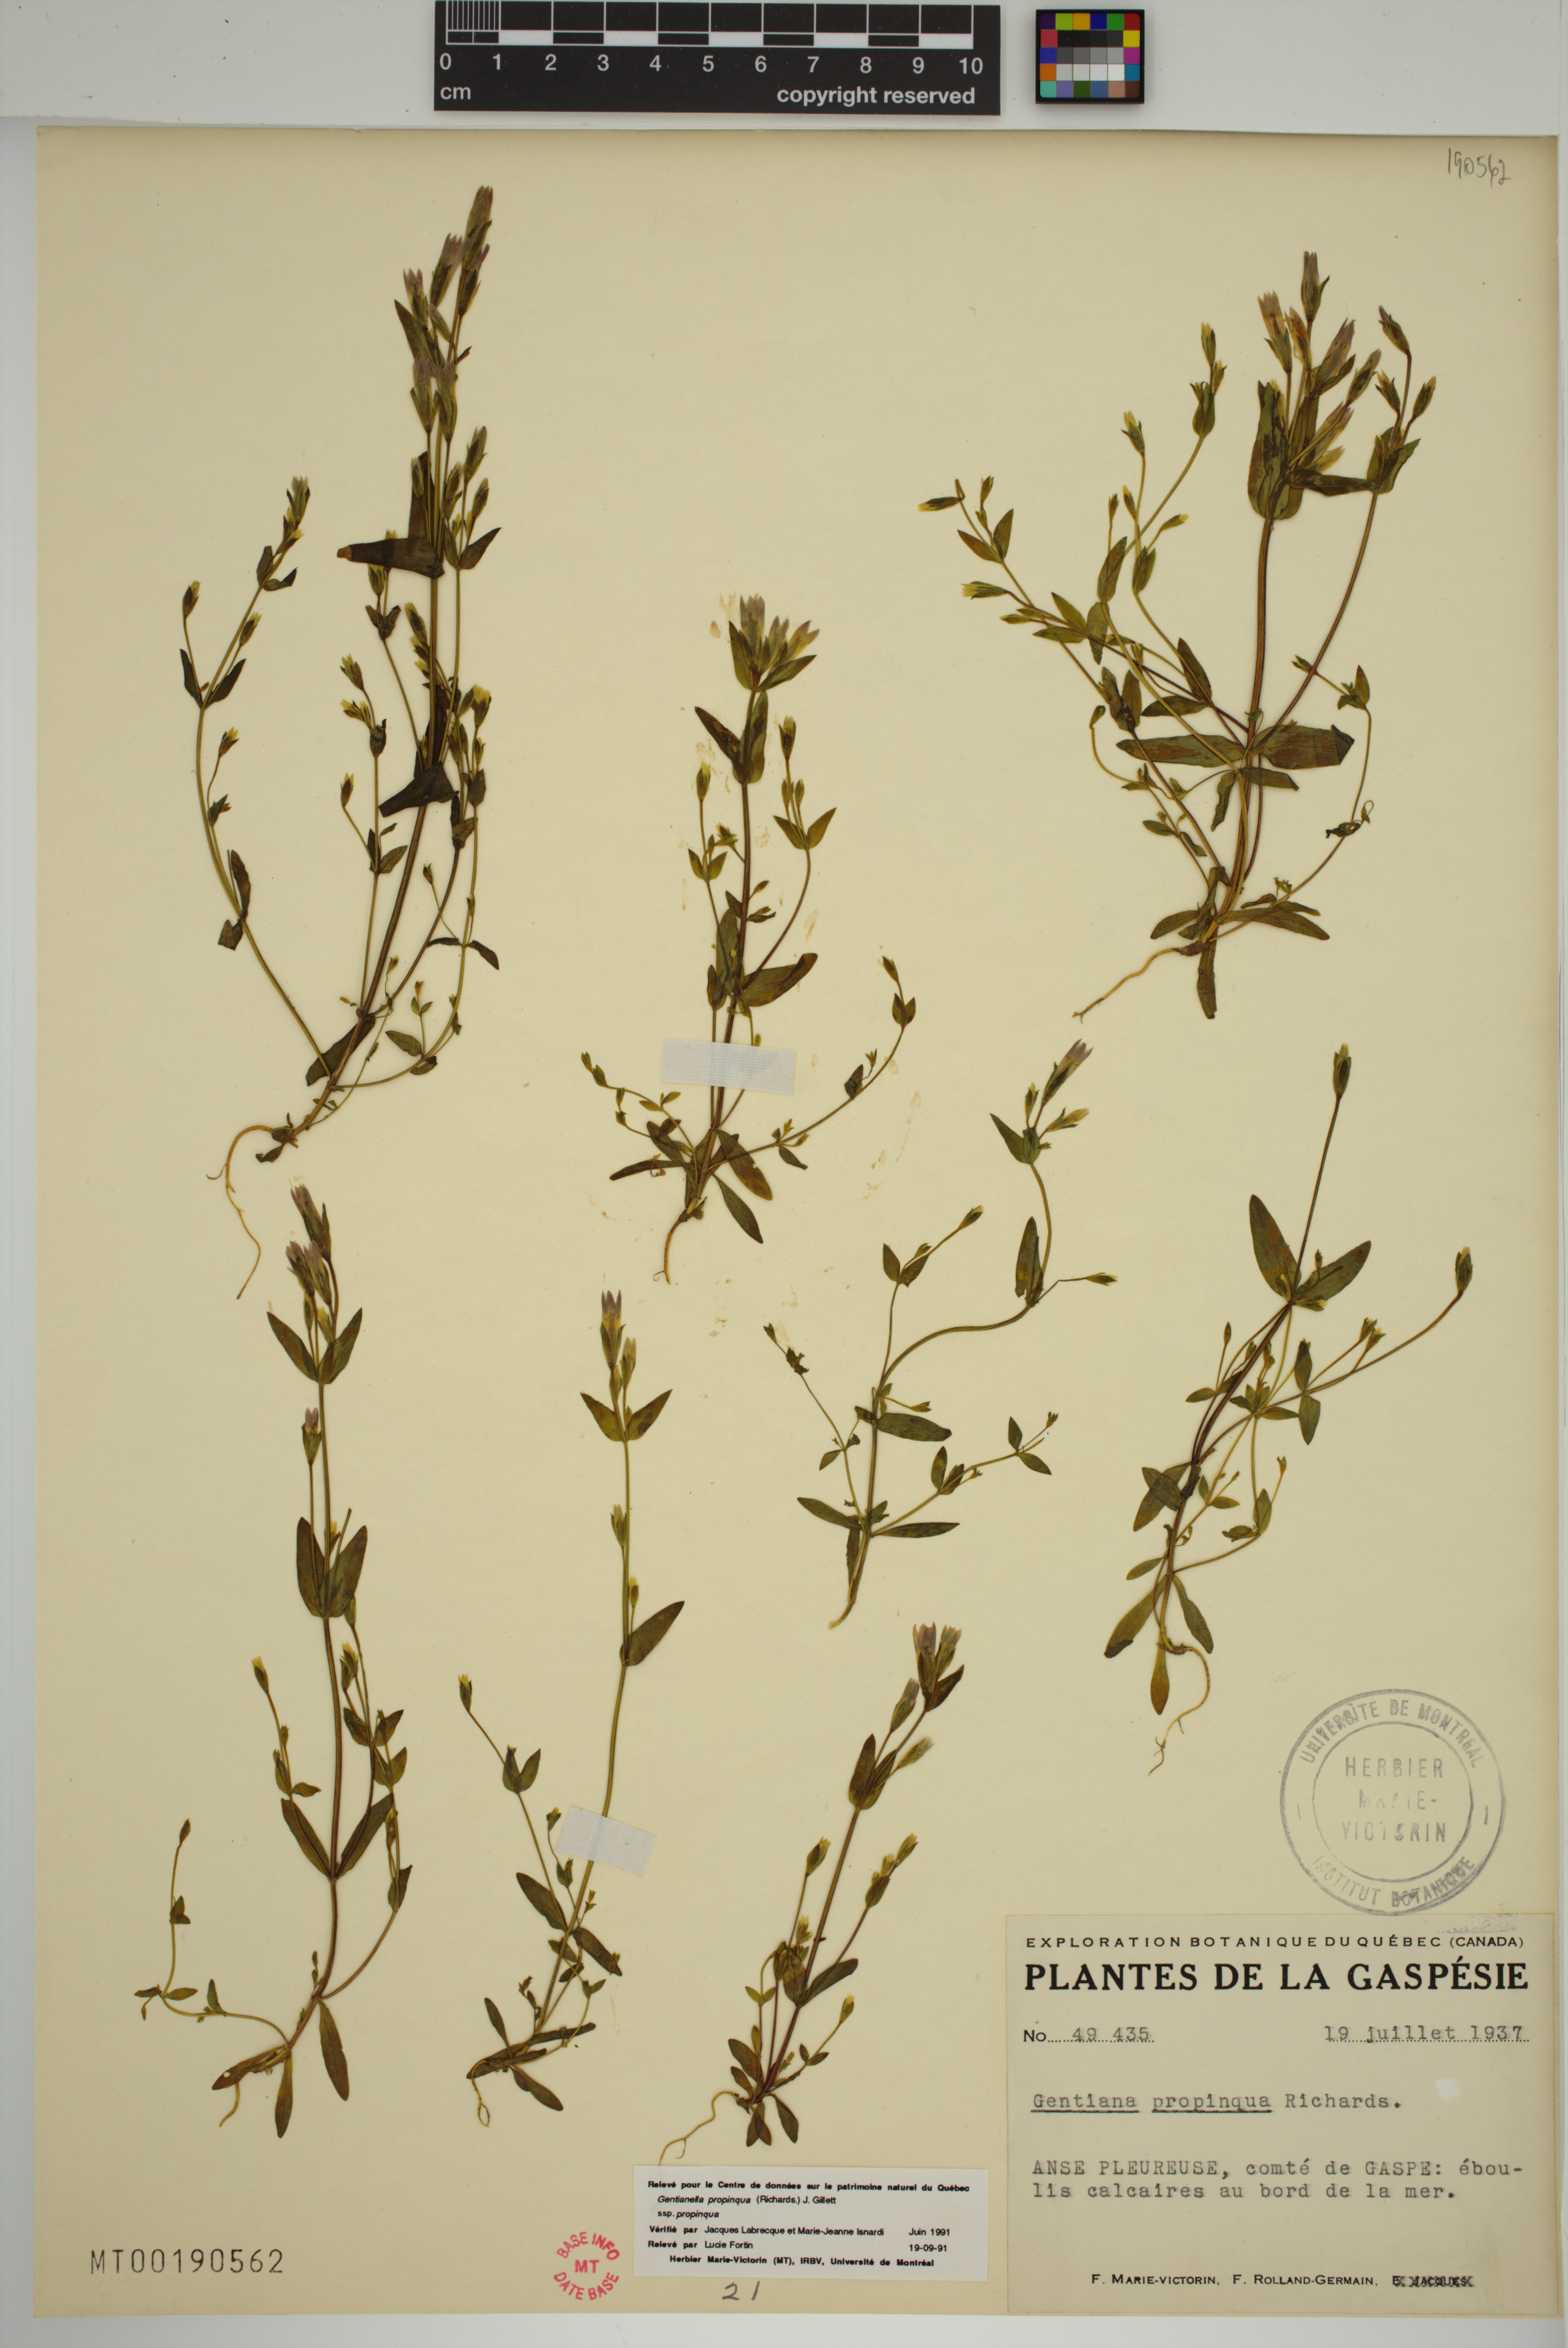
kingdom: Plantae
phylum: Tracheophyta
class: Magnoliopsida
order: Gentianales
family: Gentianaceae
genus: Gentianella
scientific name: Gentianella propinqua
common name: Four-parted dwarf-gentian
